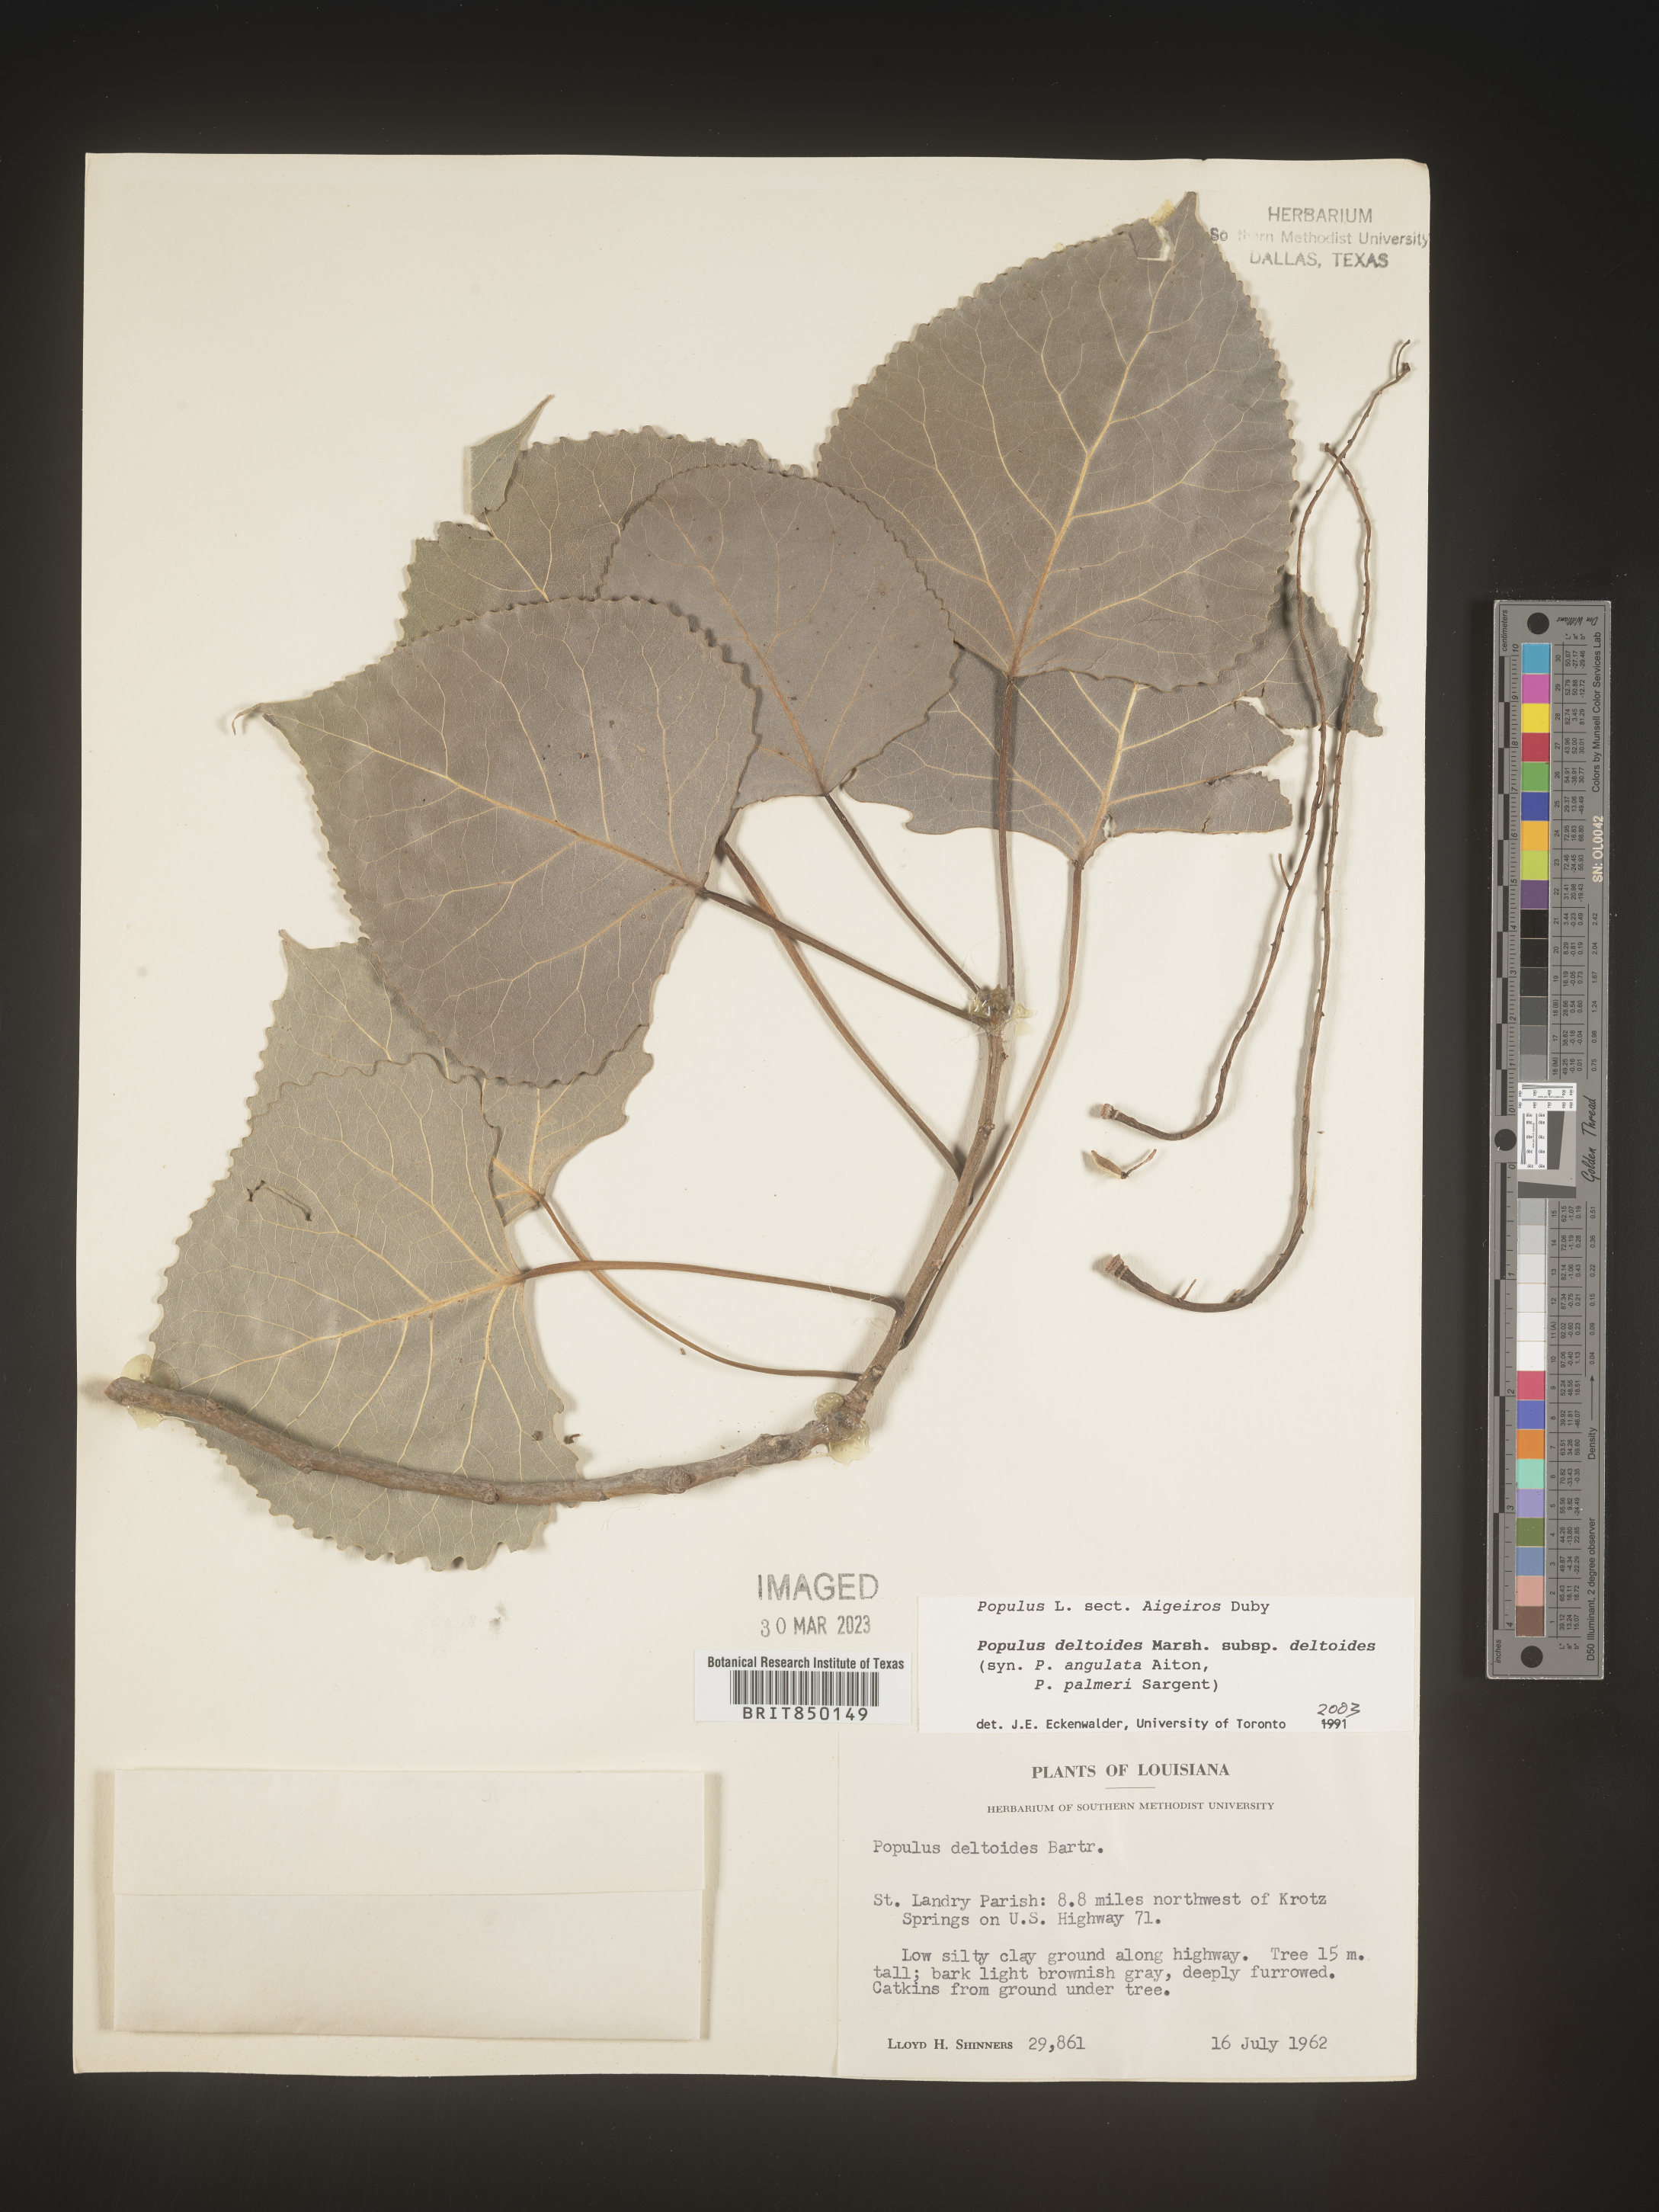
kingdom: Plantae
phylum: Tracheophyta
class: Magnoliopsida
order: Malpighiales
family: Salicaceae
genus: Populus
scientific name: Populus deltoides
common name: Eastern cottonwood
